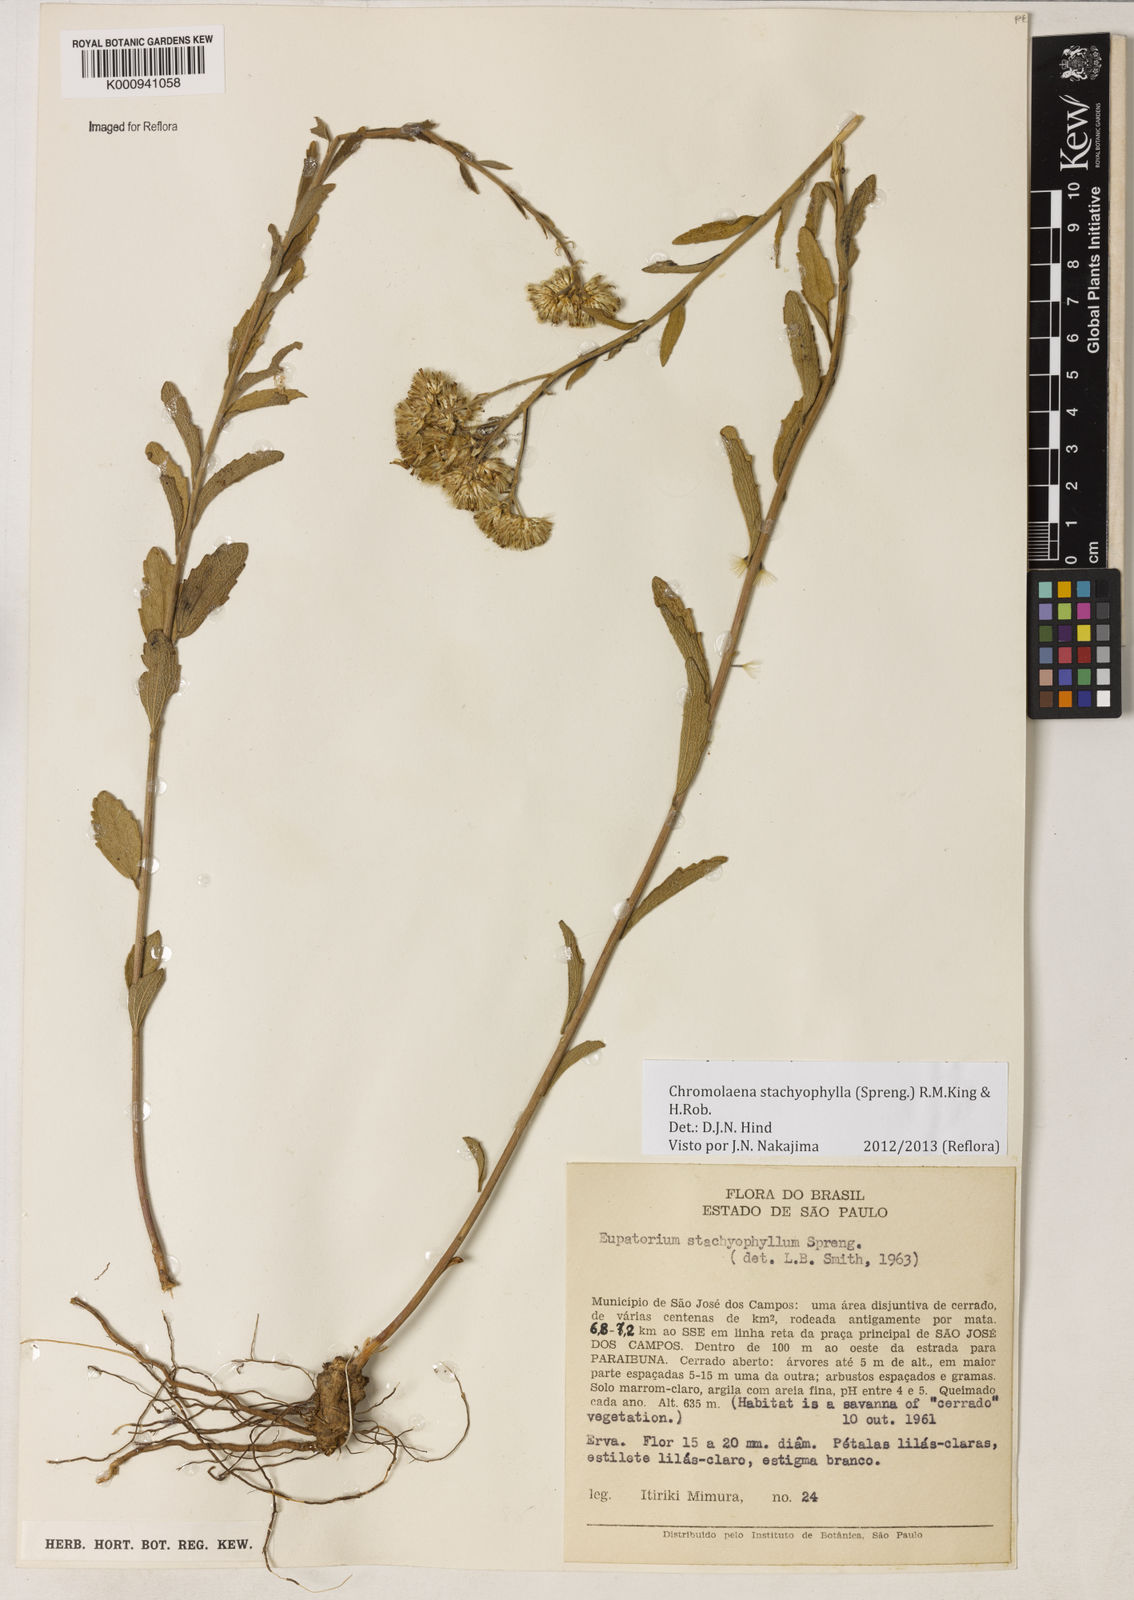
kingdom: Plantae
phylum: Tracheophyta
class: Magnoliopsida
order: Asterales
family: Asteraceae
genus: Chromolaena
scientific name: Chromolaena stachyophylla
